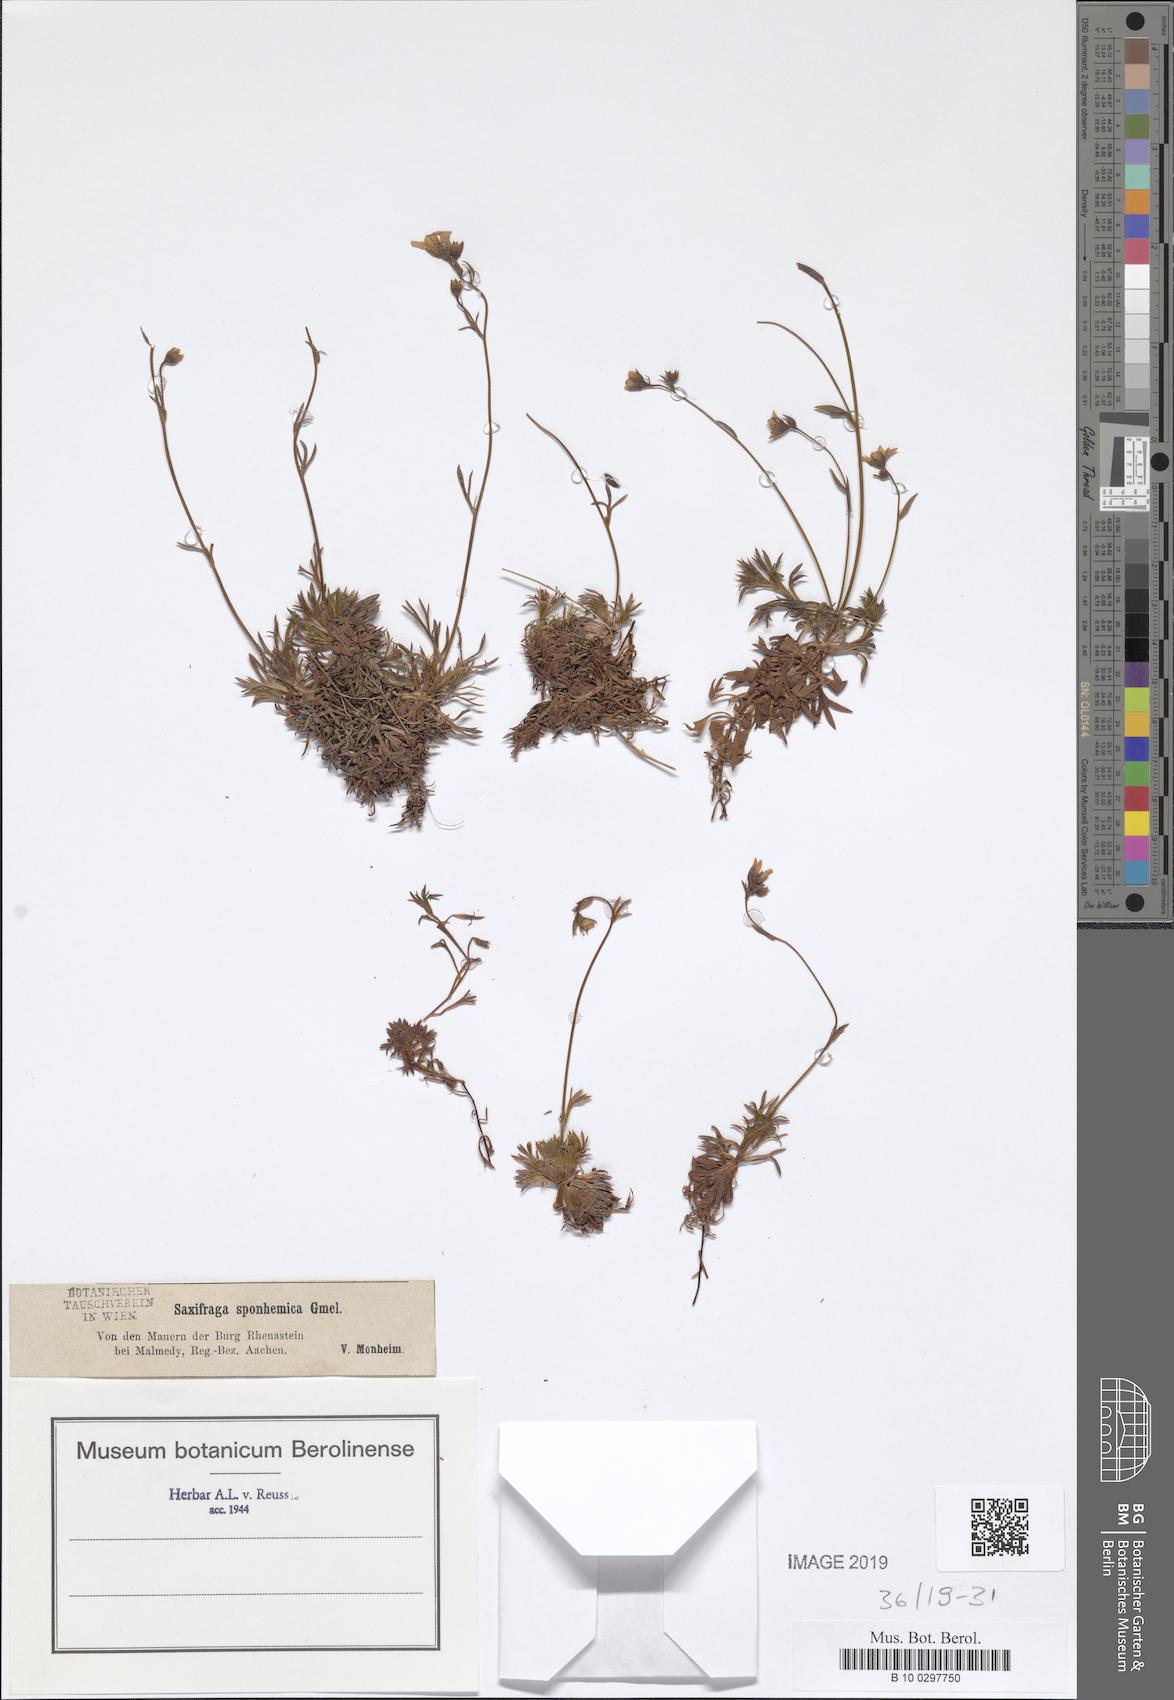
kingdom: Plantae
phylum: Tracheophyta
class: Magnoliopsida
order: Saxifragales
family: Saxifragaceae
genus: Saxifraga
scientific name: Saxifraga rosacea
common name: Irish saxifrage
